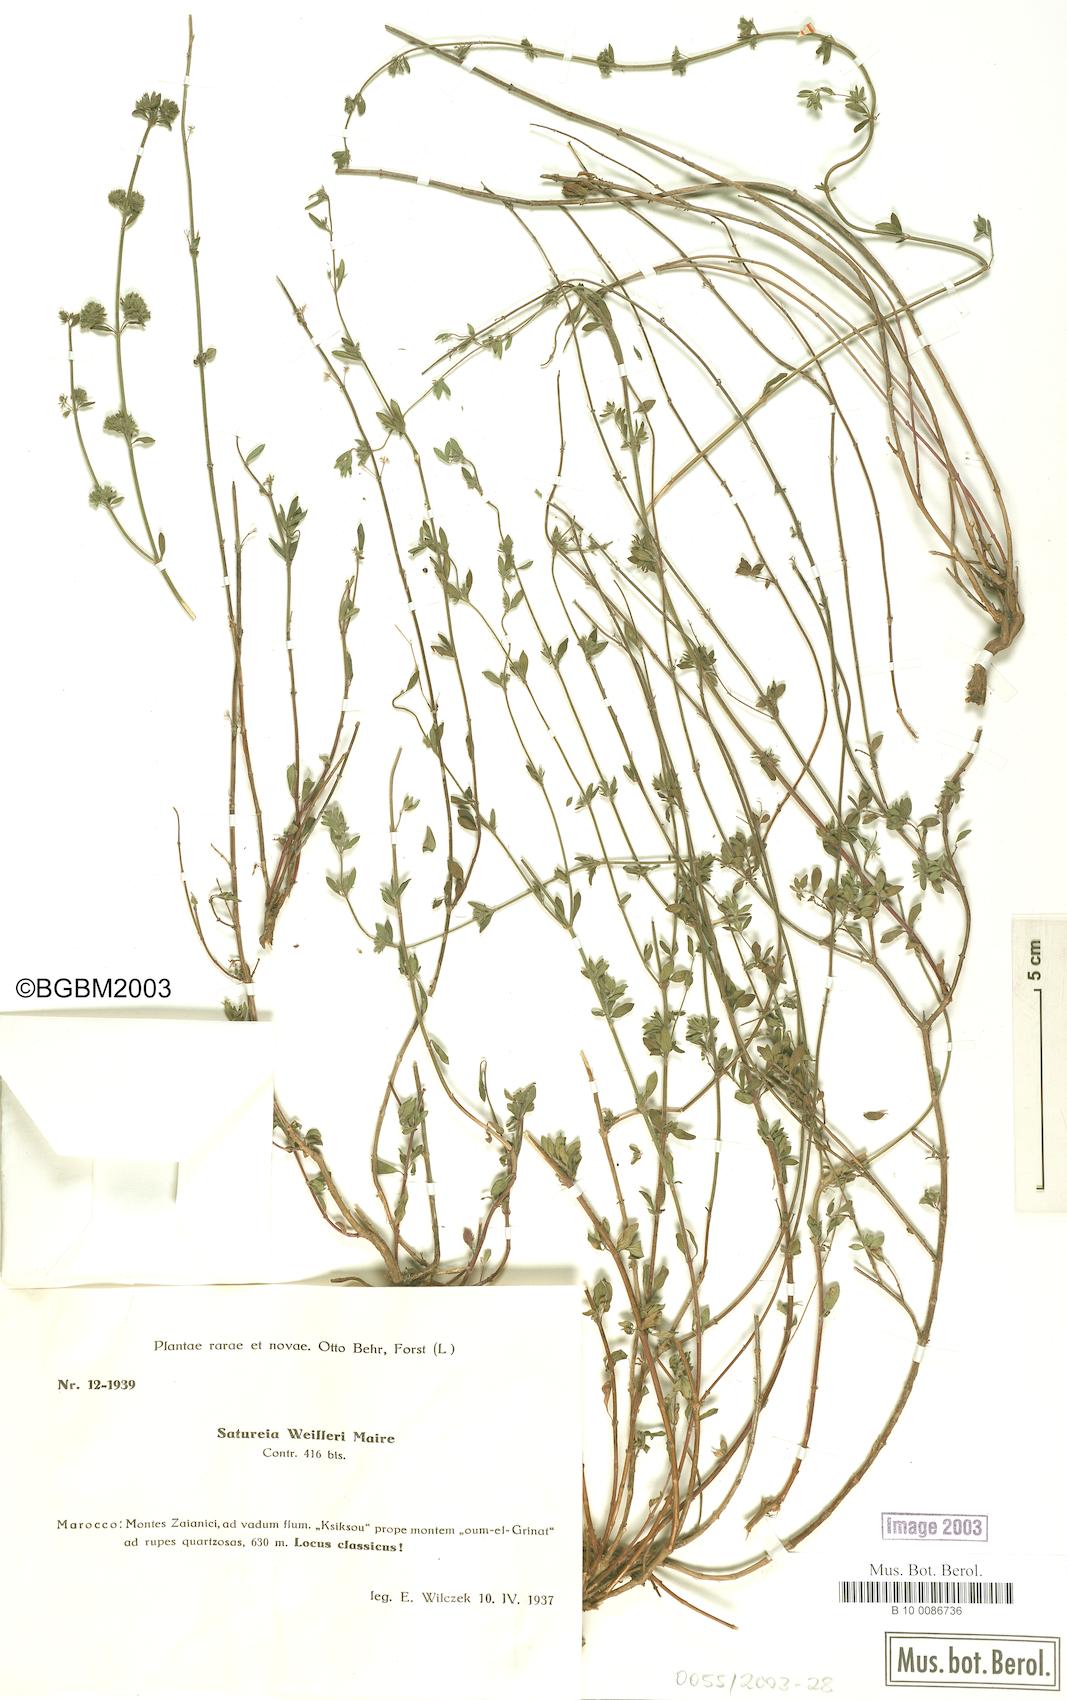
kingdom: Plantae
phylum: Tracheophyta
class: Magnoliopsida
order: Lamiales
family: Lamiaceae
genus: Micromeria
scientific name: Micromeria weilleri
